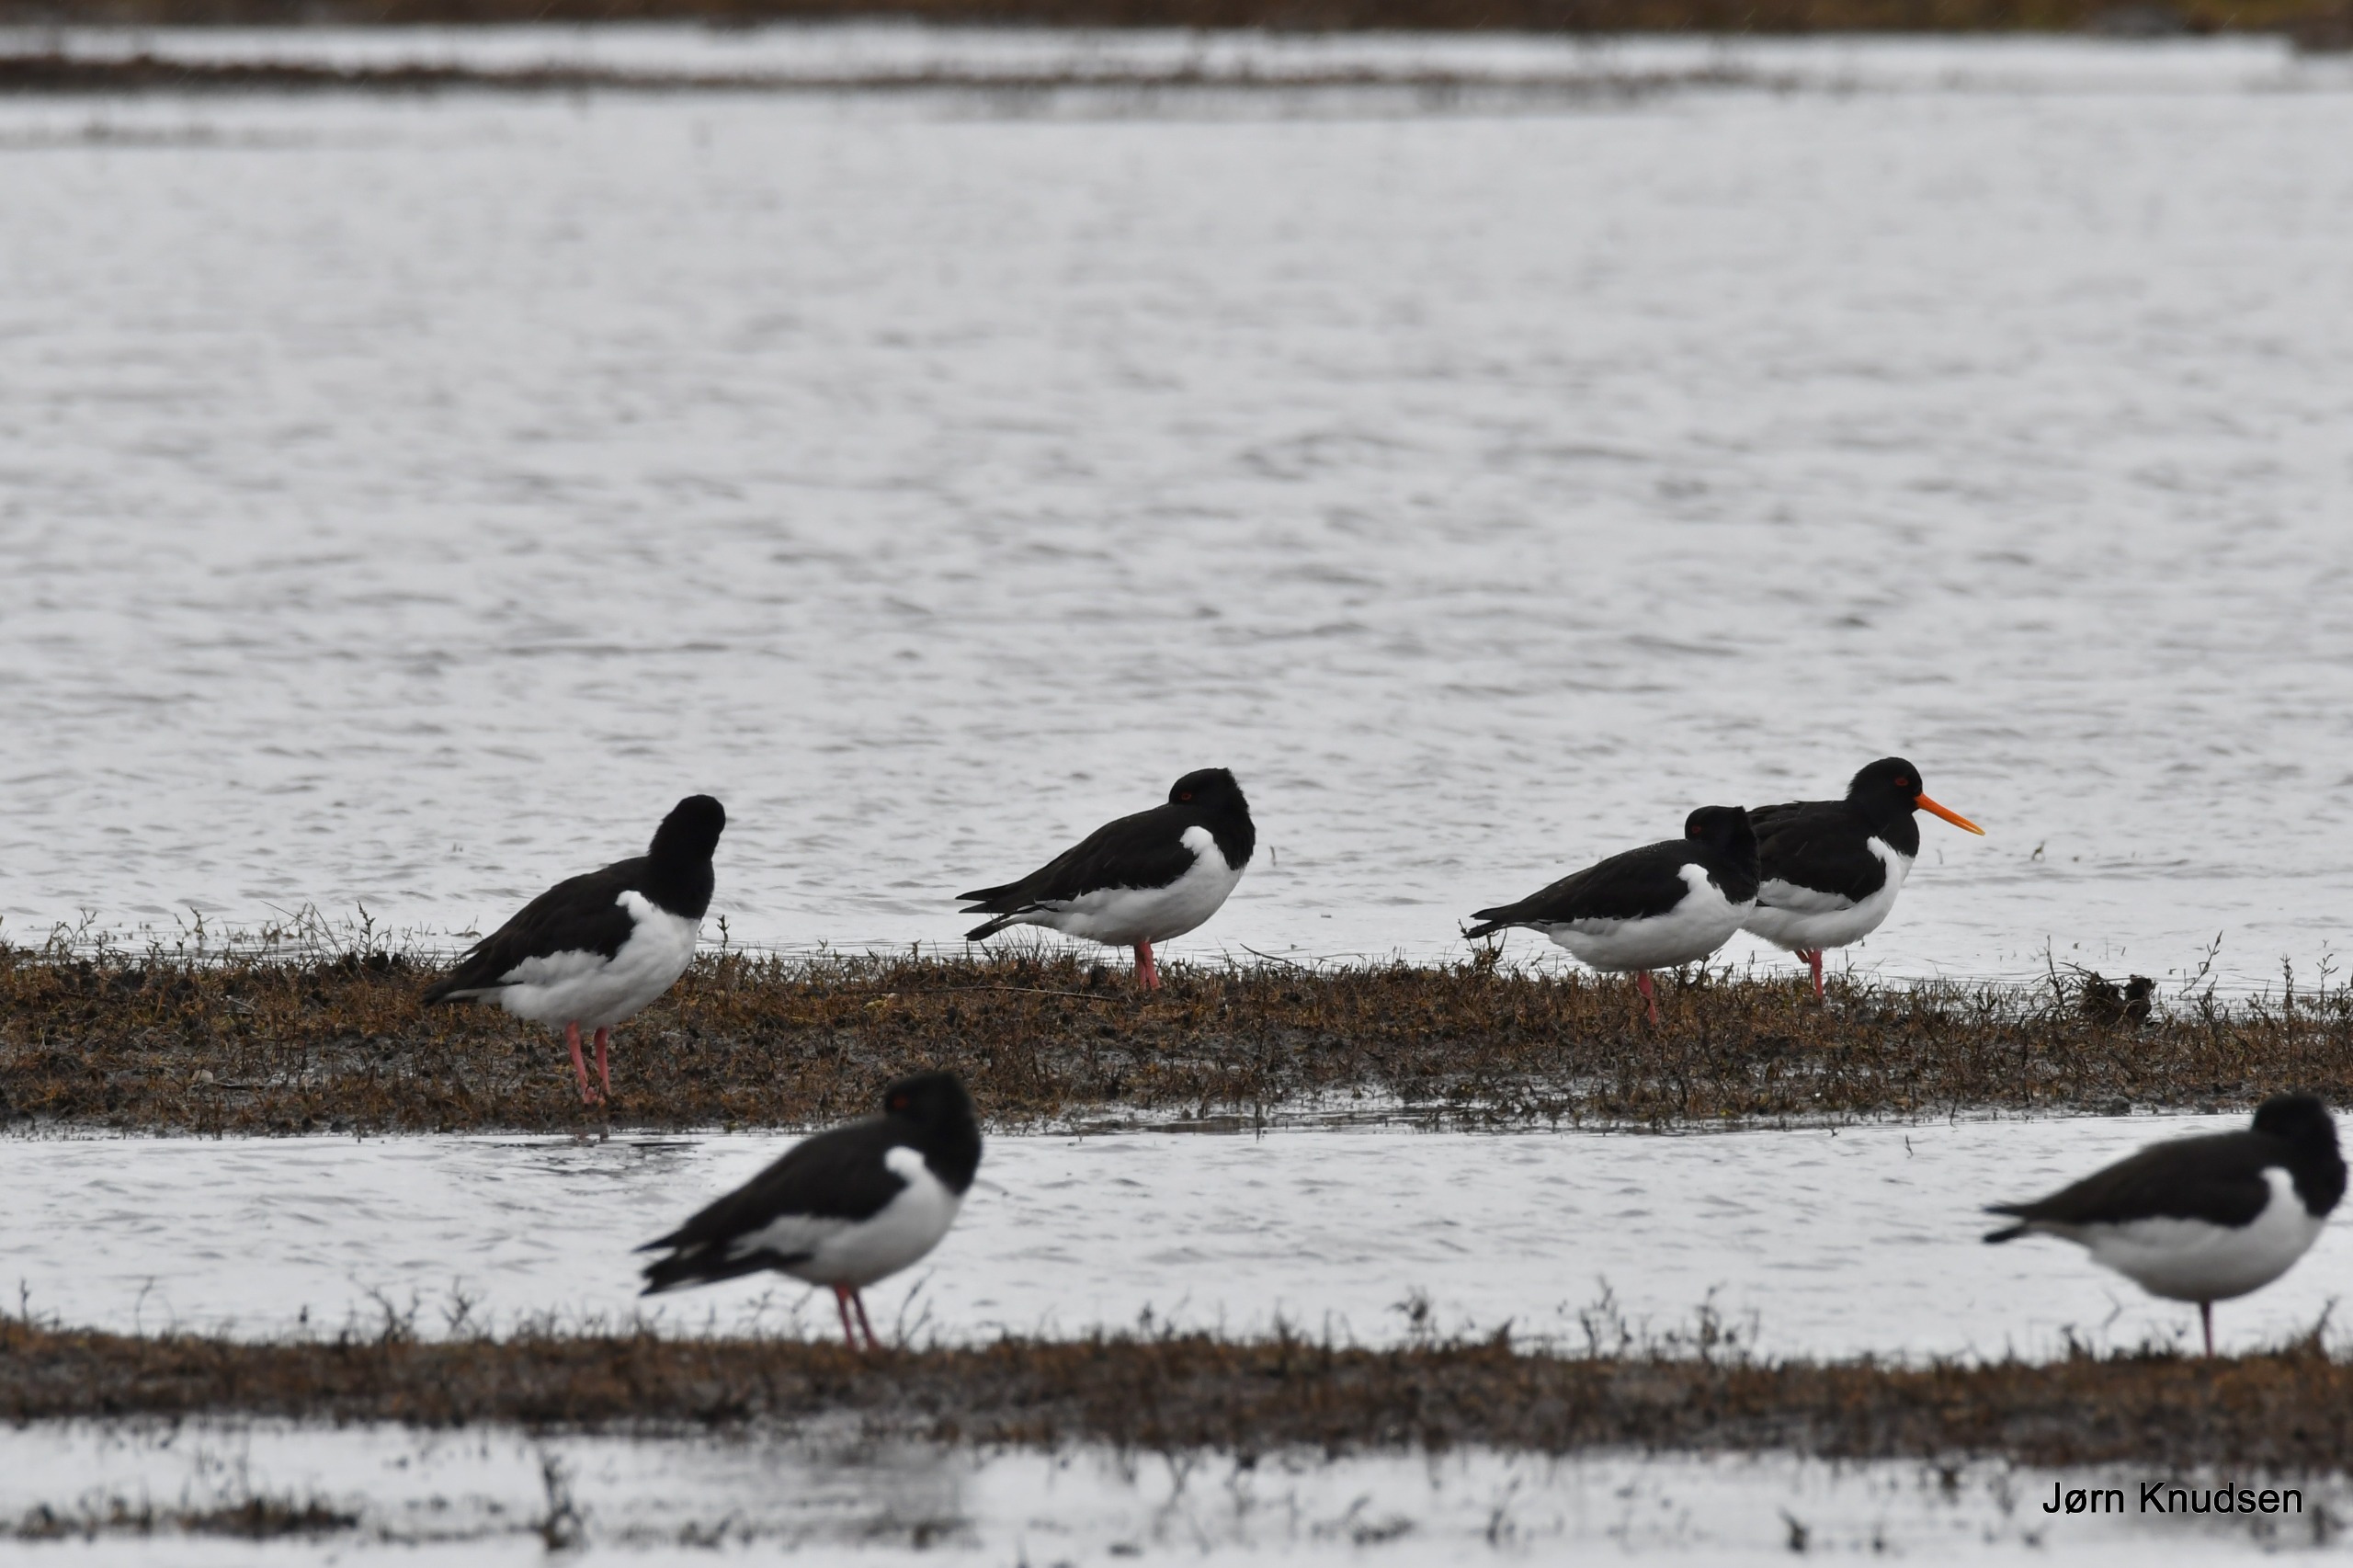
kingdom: Animalia
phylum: Chordata
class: Aves
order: Charadriiformes
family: Haematopodidae
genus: Haematopus
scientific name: Haematopus ostralegus
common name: Strandskade
